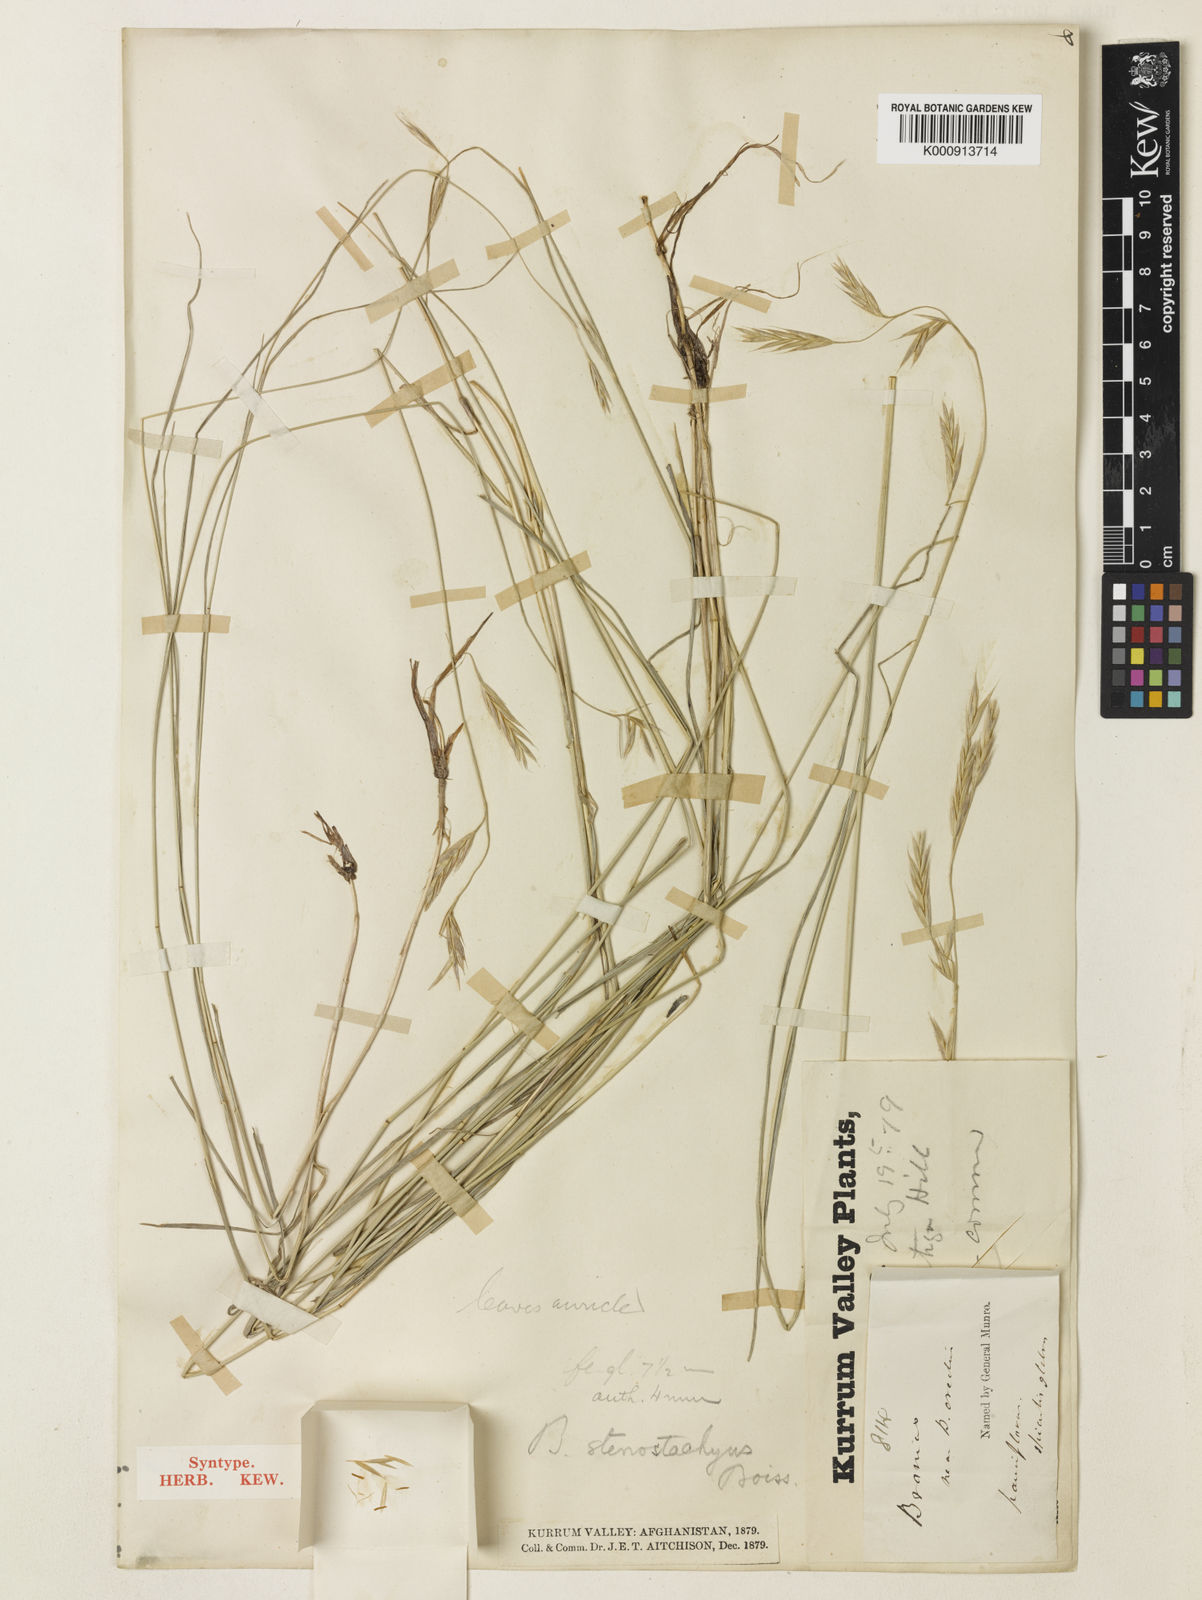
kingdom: Plantae
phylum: Tracheophyta
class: Liliopsida
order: Poales
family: Poaceae
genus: Bromus
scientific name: Bromus stenostachyus
